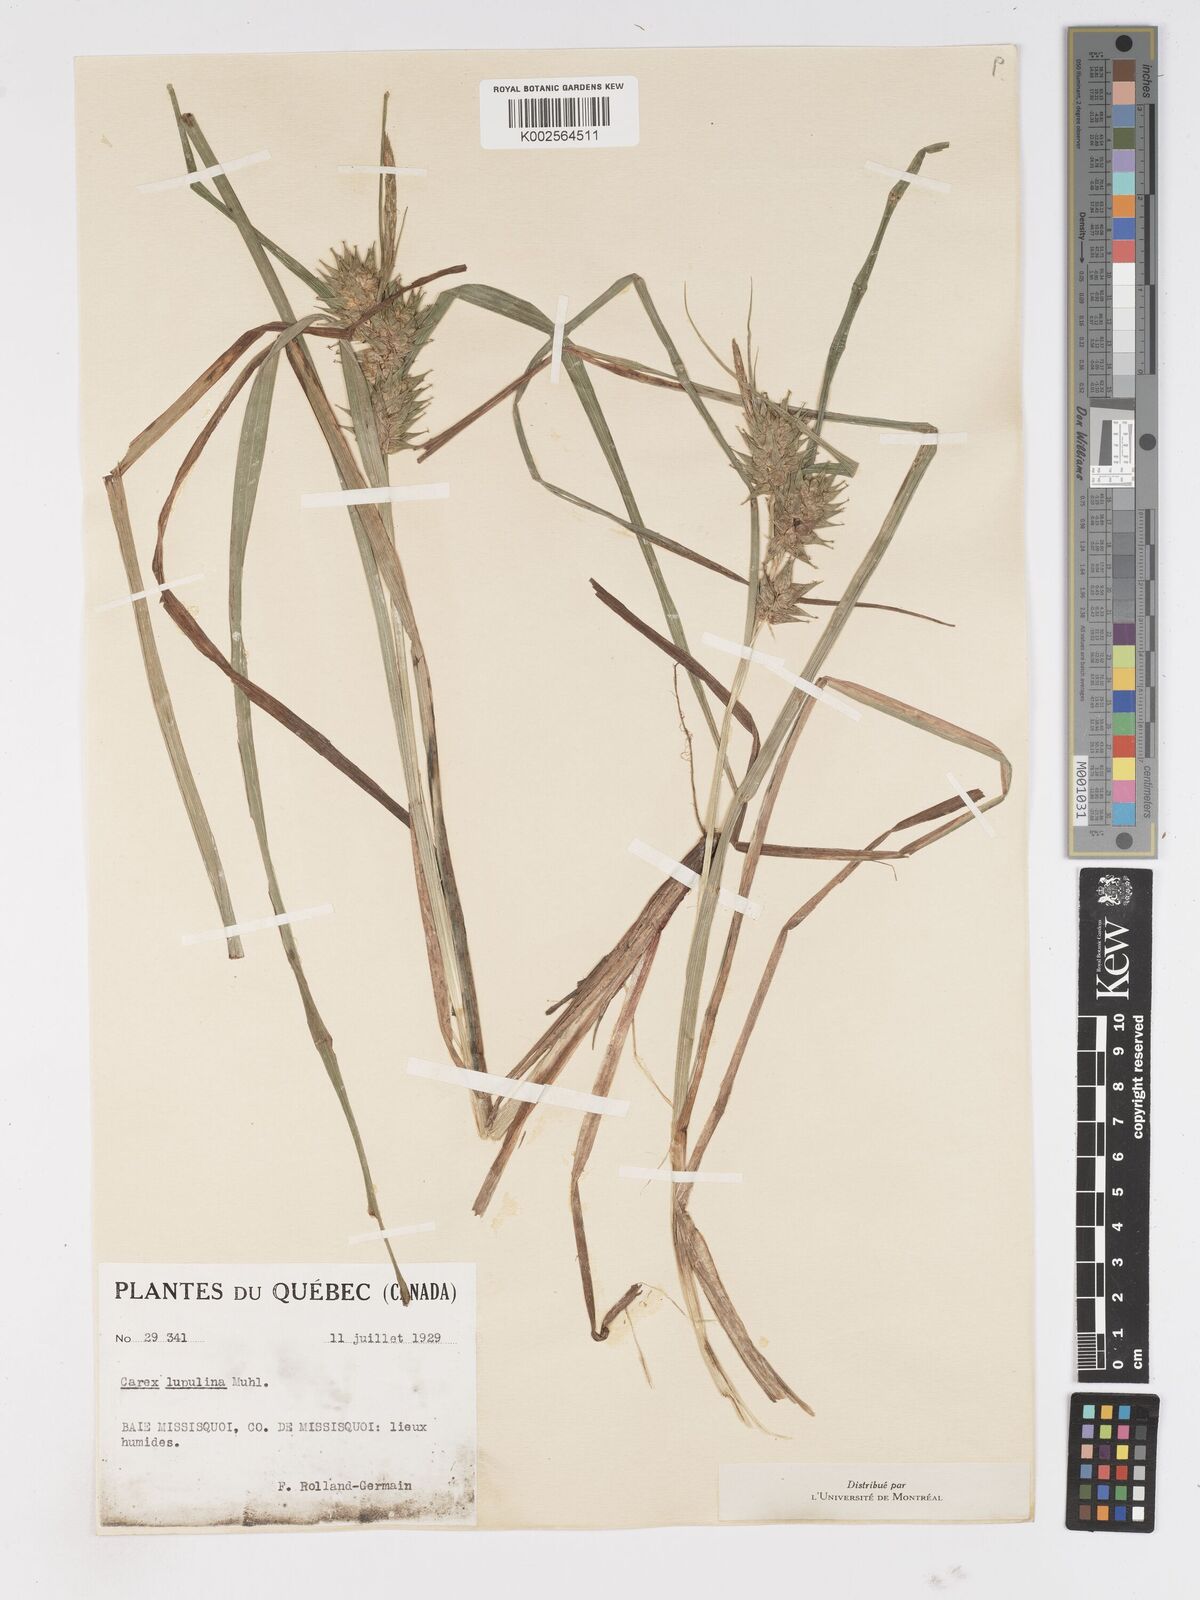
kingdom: Plantae
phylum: Tracheophyta
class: Liliopsida
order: Poales
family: Cyperaceae
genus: Carex
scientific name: Carex lupulina
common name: Hop sedge
